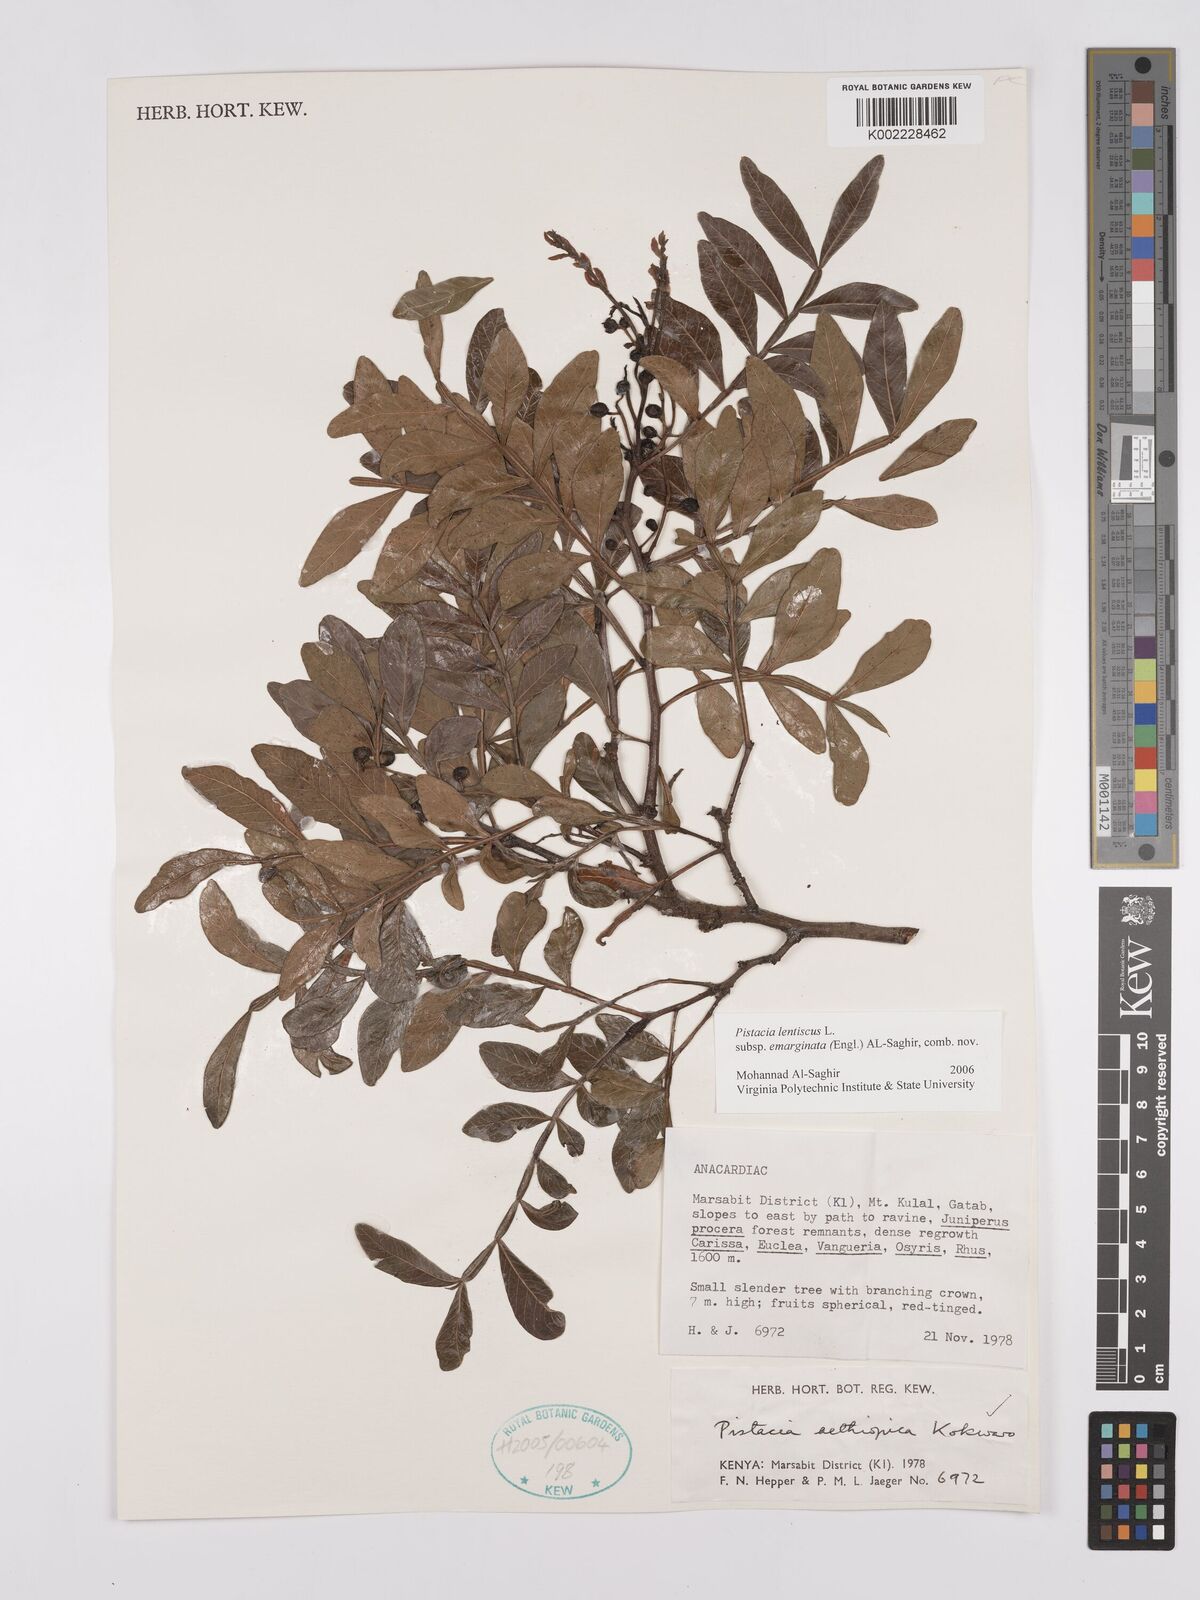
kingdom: Plantae
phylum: Tracheophyta
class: Magnoliopsida
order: Sapindales
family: Anacardiaceae
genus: Pistacia
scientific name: Pistacia lentiscus
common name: Lentisk
